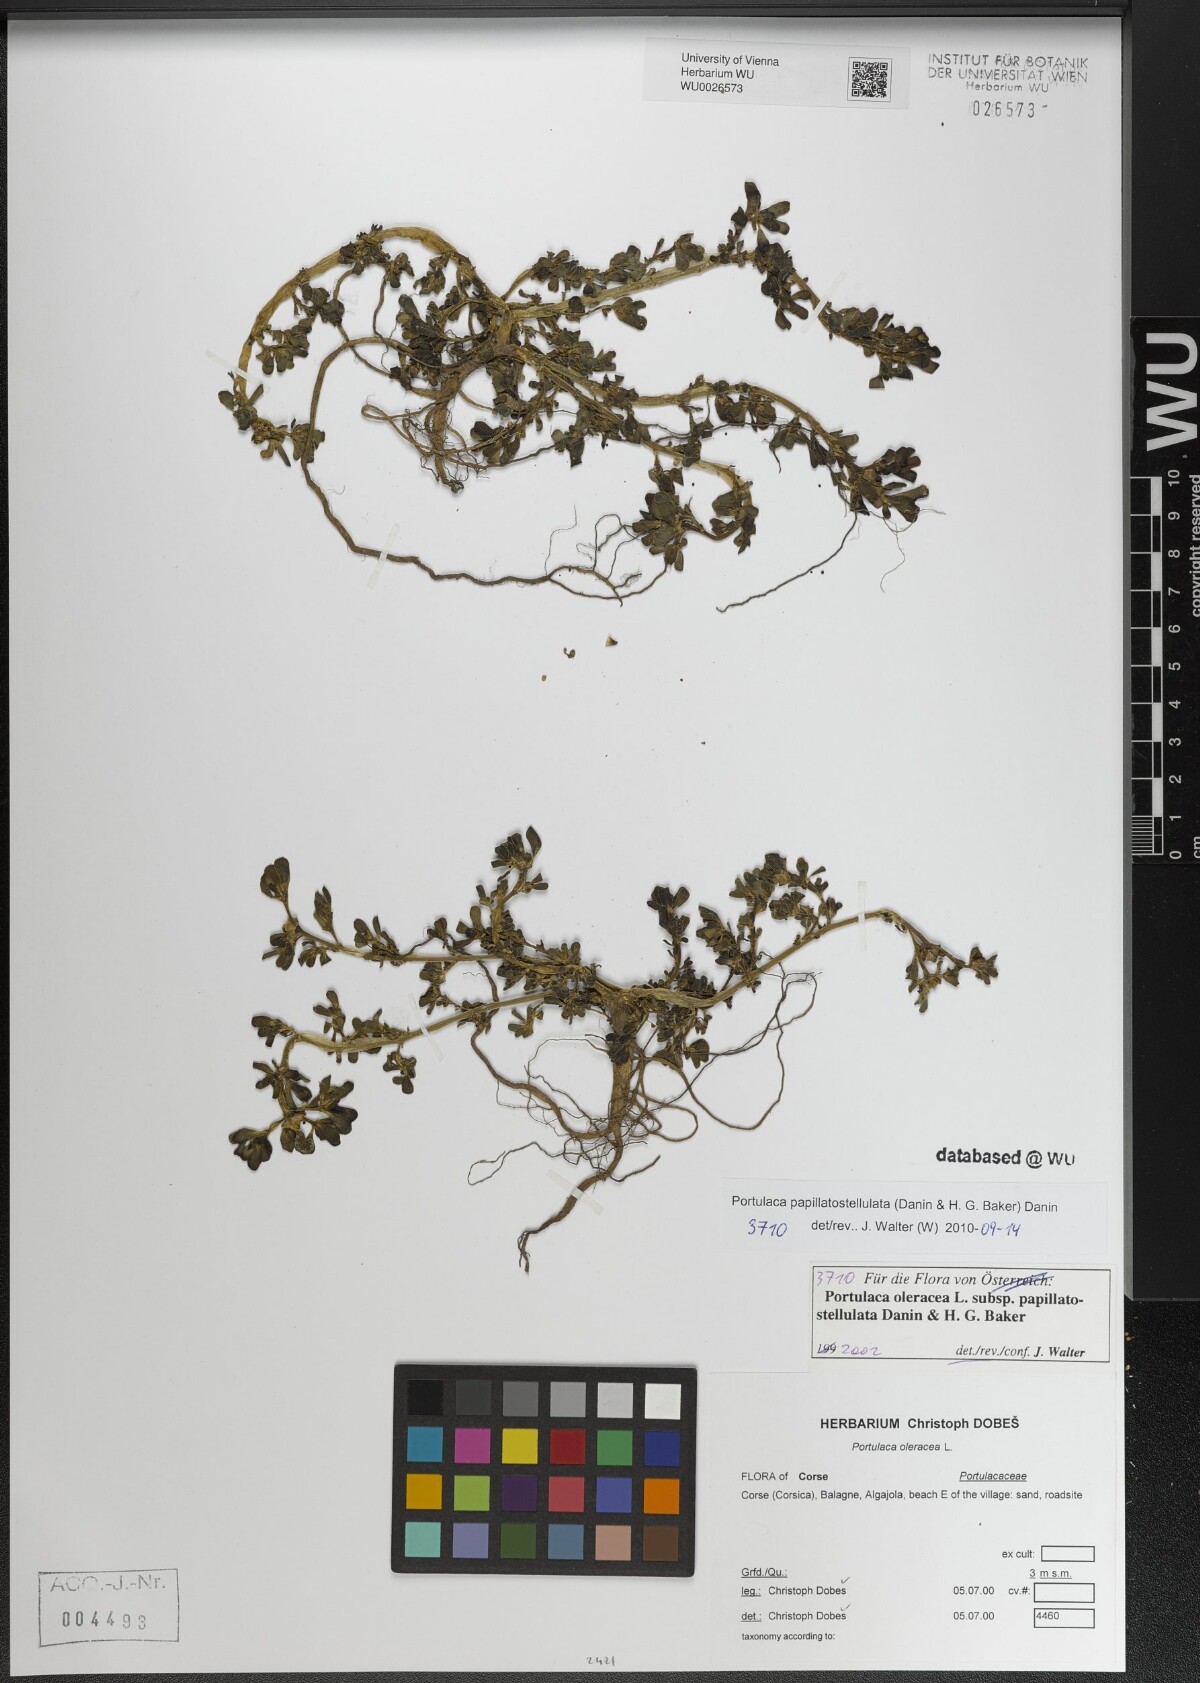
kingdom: Plantae
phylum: Tracheophyta
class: Magnoliopsida
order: Caryophyllales
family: Portulacaceae
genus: Portulaca
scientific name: Portulaca macrantha
